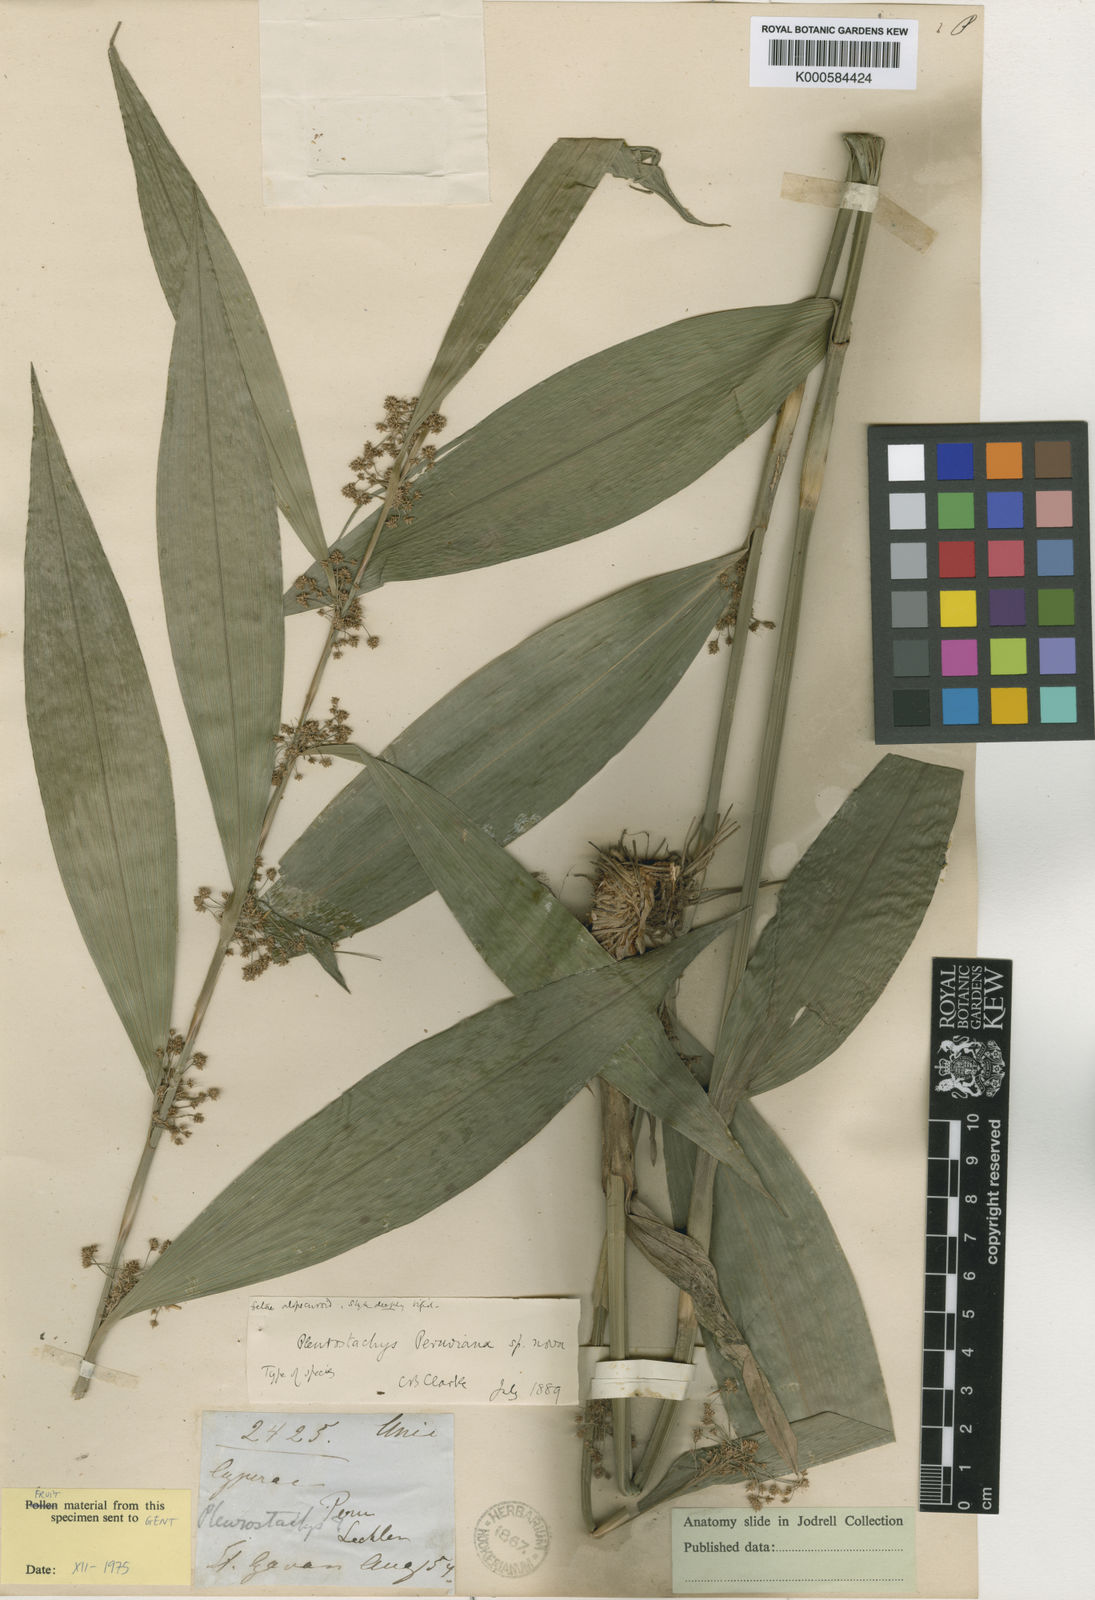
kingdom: Plantae
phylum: Tracheophyta
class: Liliopsida
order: Poales
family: Cyperaceae
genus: Rhynchospora
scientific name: Rhynchospora peruviana
